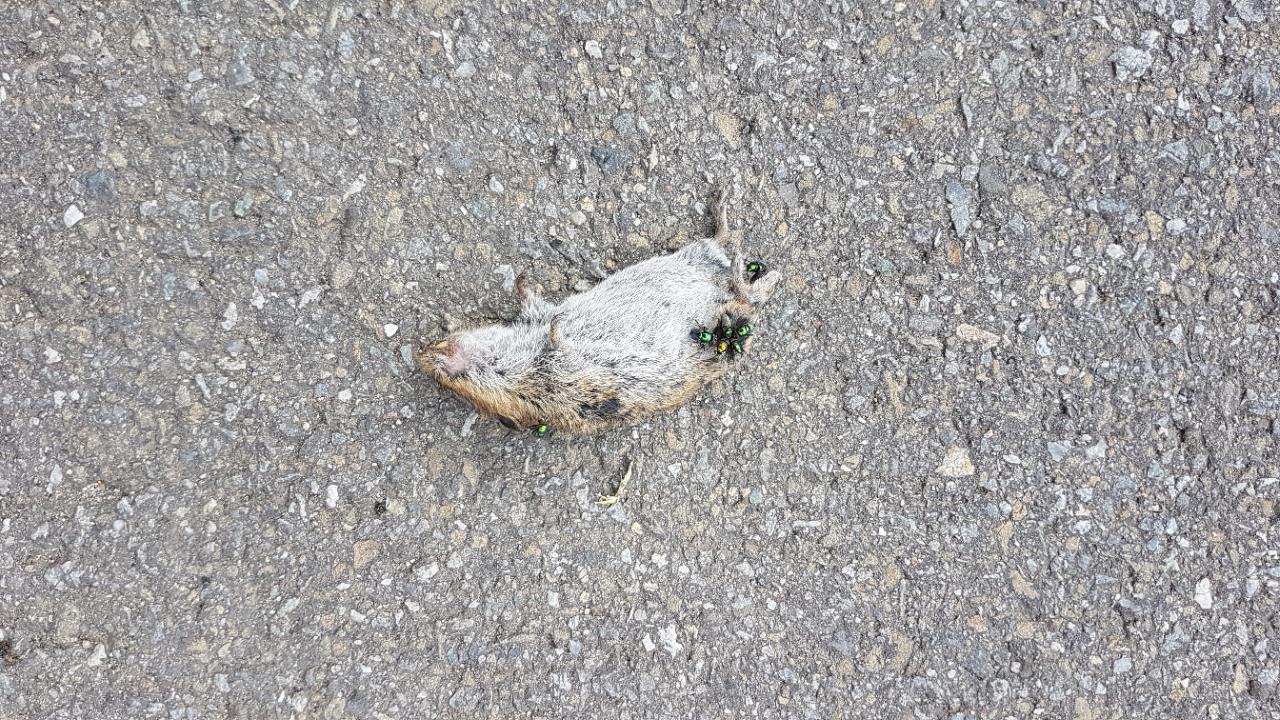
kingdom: Animalia
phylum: Chordata
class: Mammalia
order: Rodentia
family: Cricetidae
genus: Microtus
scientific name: Microtus
